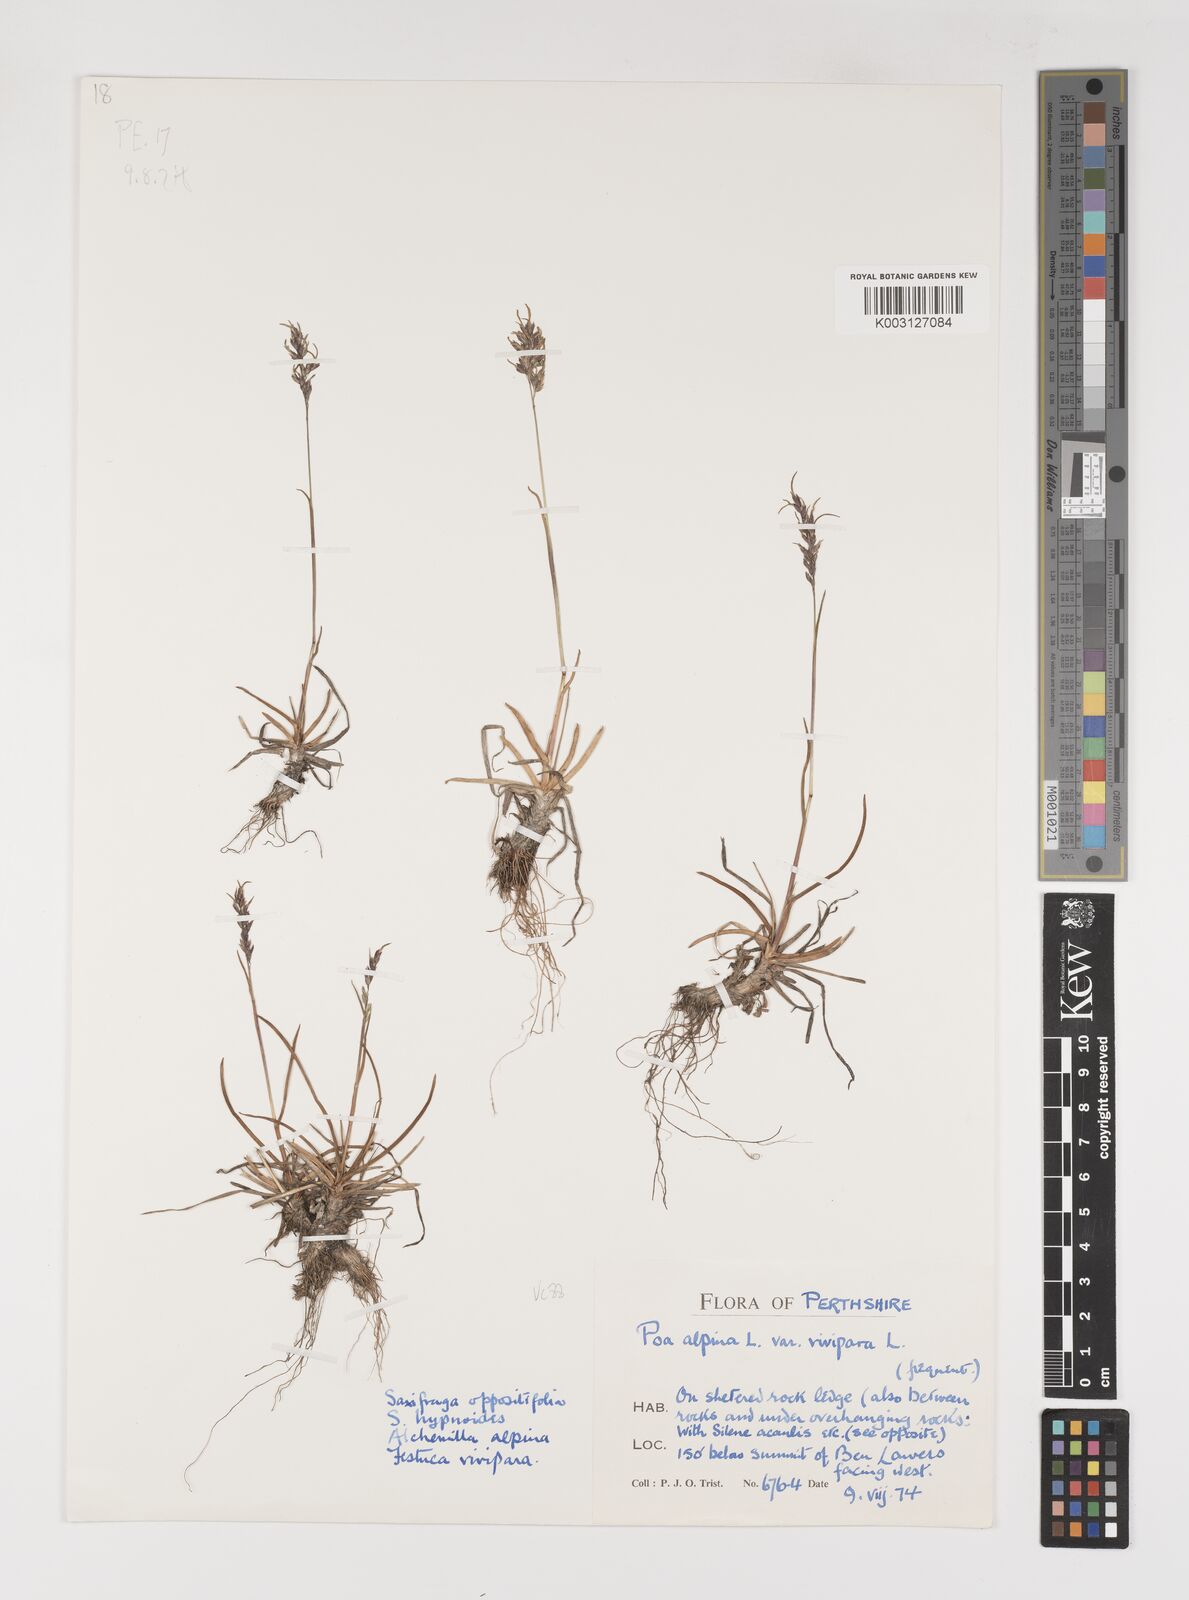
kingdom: Plantae
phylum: Tracheophyta
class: Liliopsida
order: Poales
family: Poaceae
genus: Poa
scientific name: Poa alpina
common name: Alpine bluegrass
